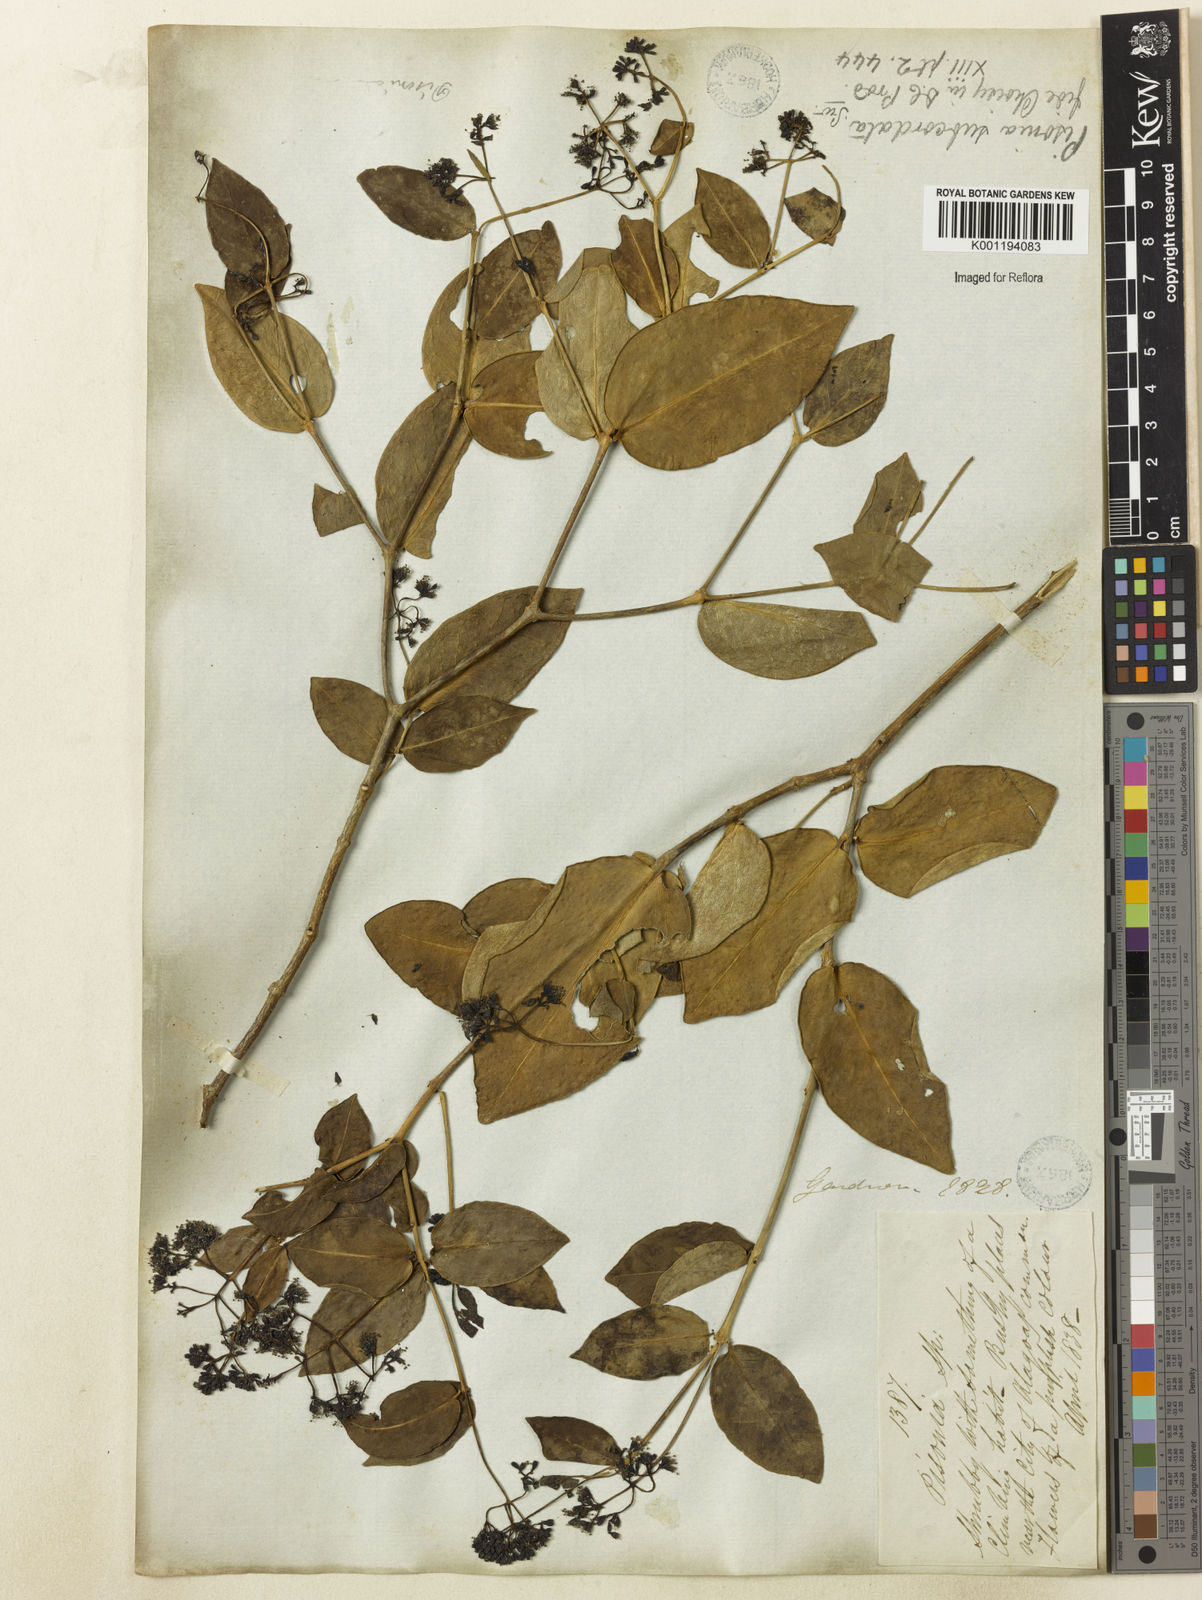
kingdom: Plantae
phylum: Tracheophyta
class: Magnoliopsida
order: Caryophyllales
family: Nyctaginaceae
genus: Guapira
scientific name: Guapira
